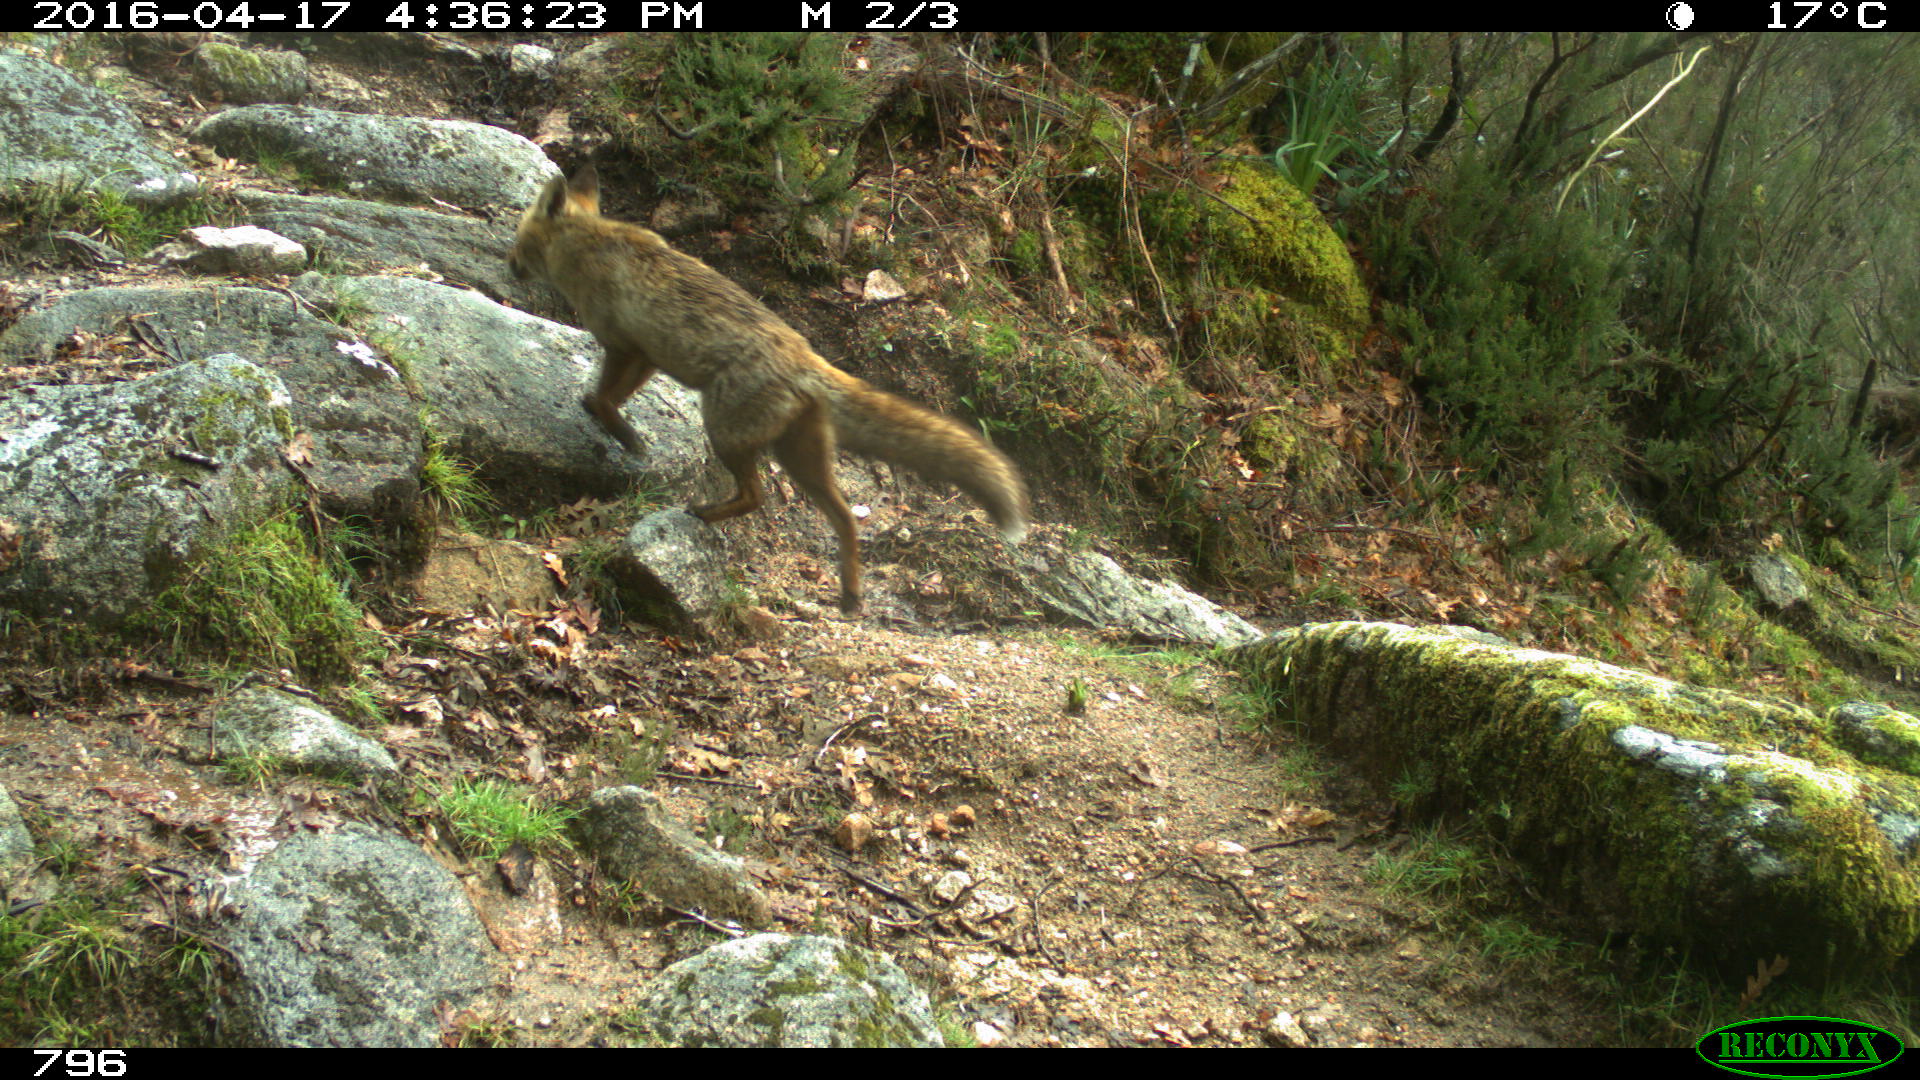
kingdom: Animalia
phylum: Chordata
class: Mammalia
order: Carnivora
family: Canidae
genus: Vulpes
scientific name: Vulpes vulpes
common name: Red fox
